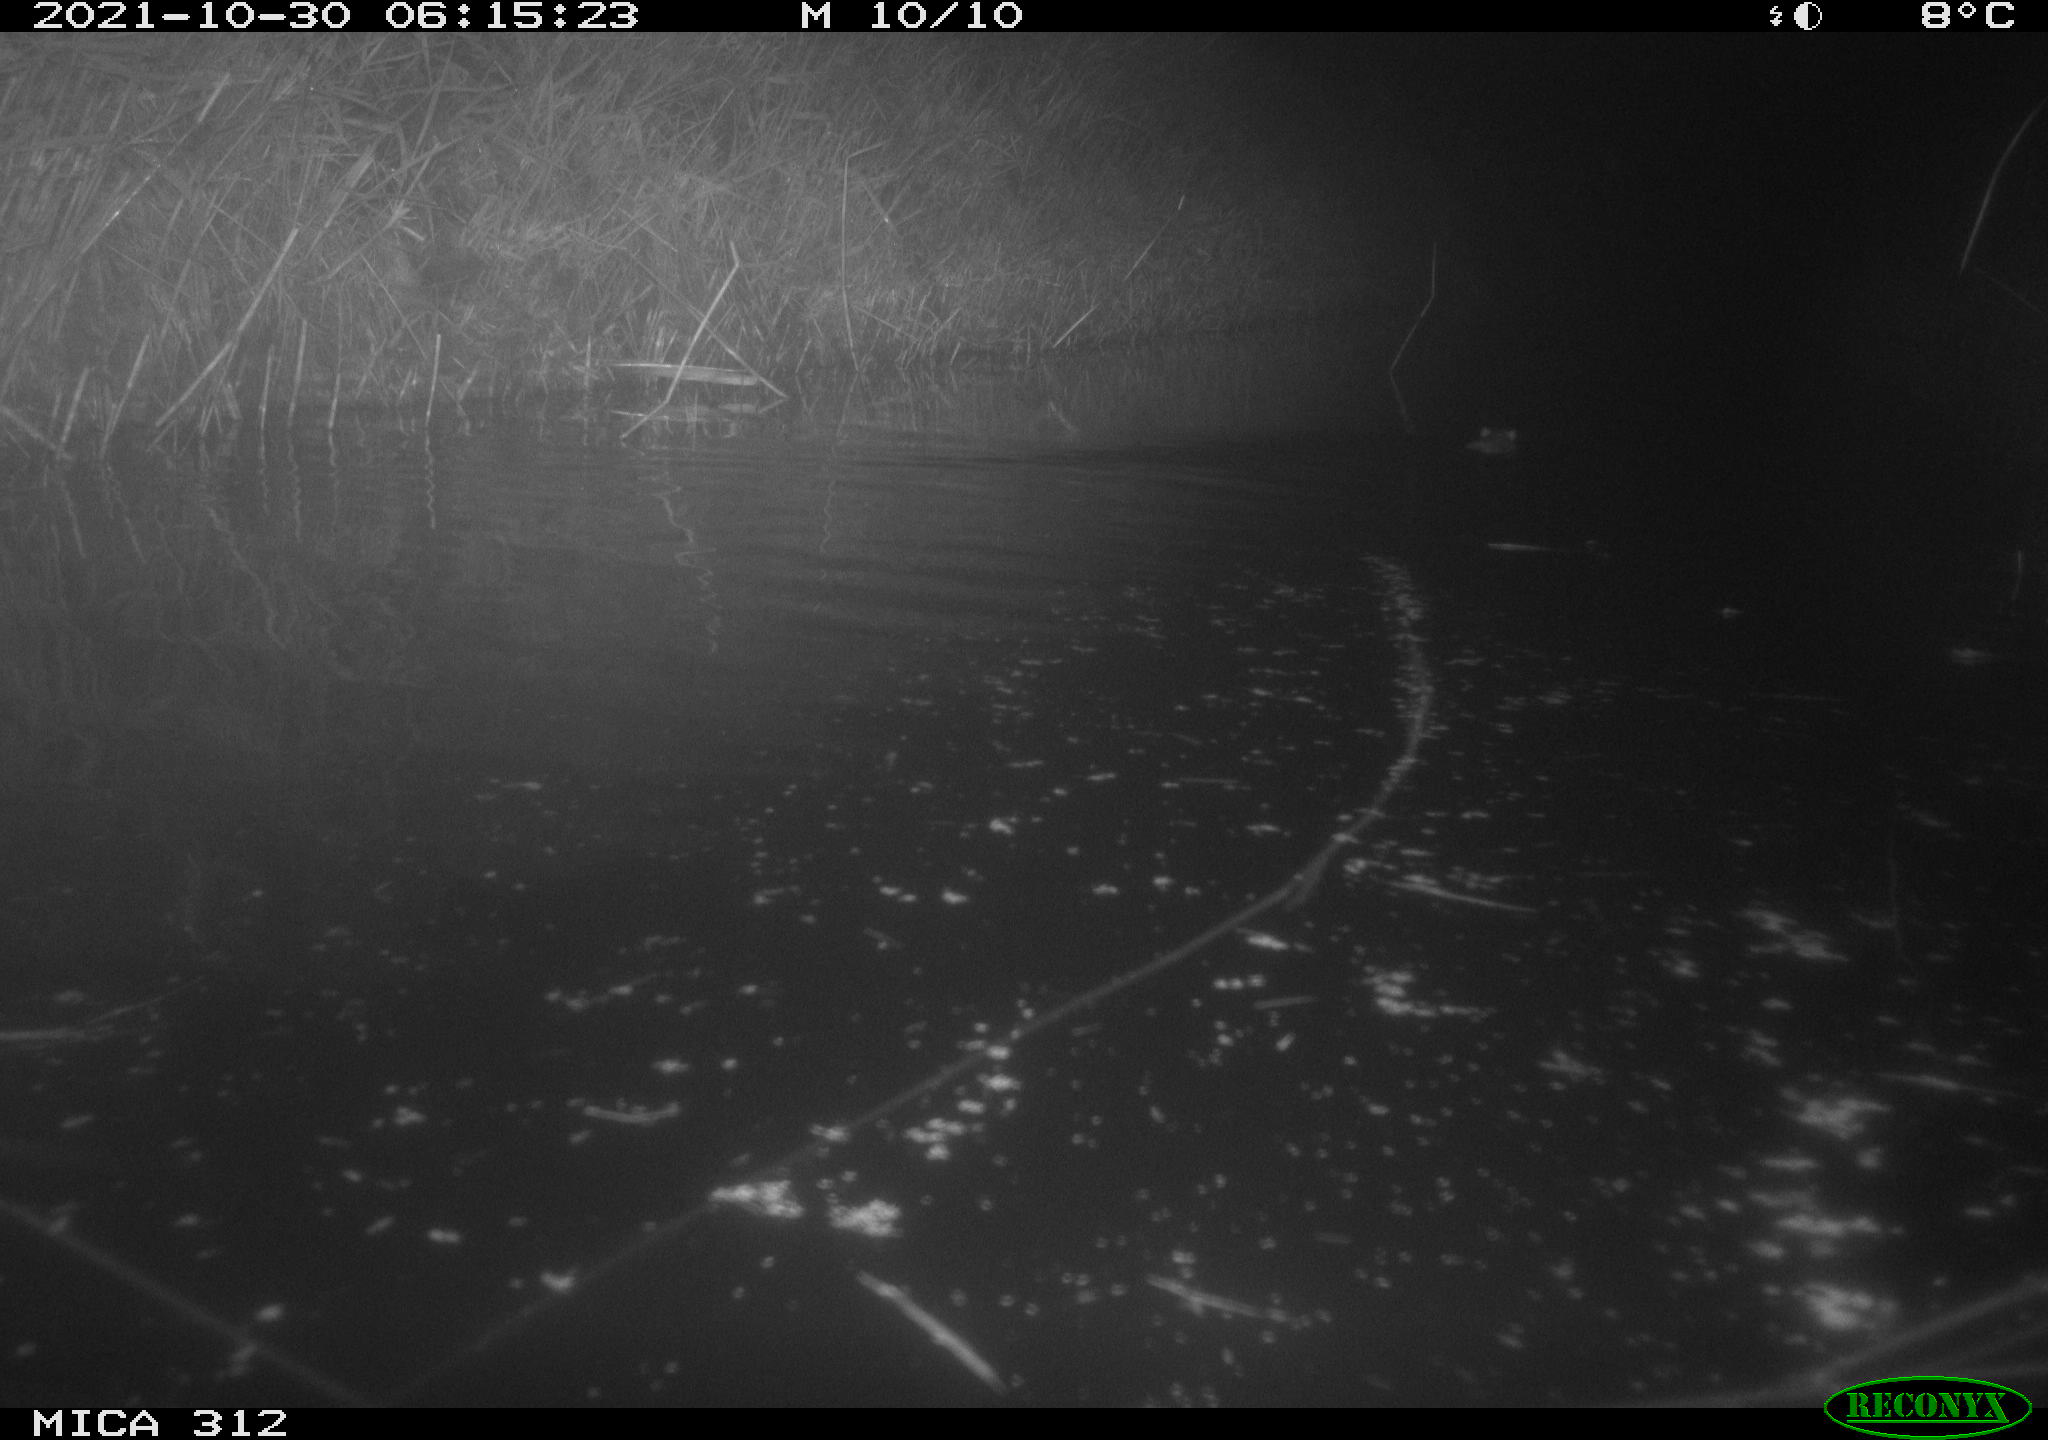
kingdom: Animalia
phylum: Chordata
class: Mammalia
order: Rodentia
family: Muridae
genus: Rattus
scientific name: Rattus norvegicus
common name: Brown rat
